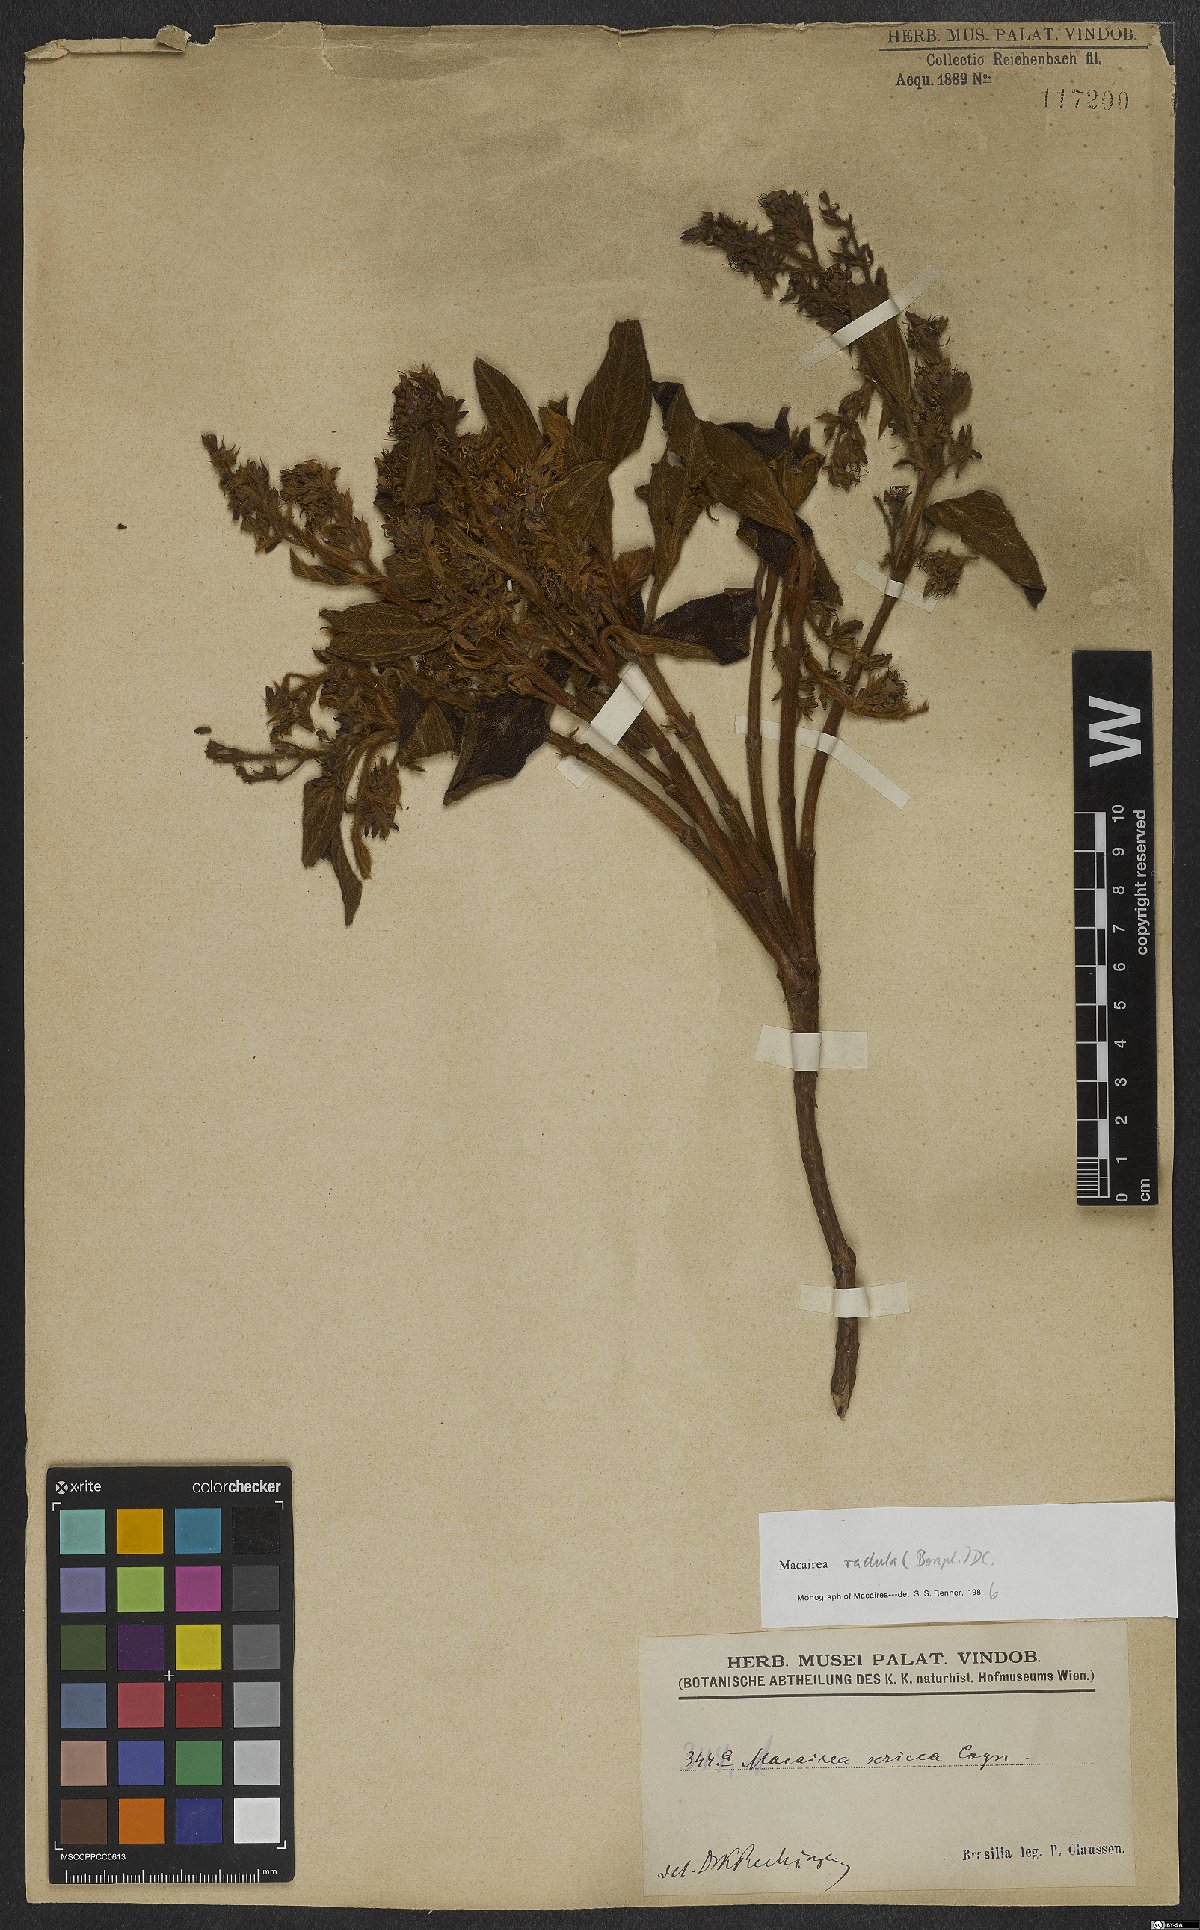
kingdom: Plantae
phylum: Tracheophyta
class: Magnoliopsida
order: Myrtales
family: Melastomataceae
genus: Macairea
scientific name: Macairea radula
